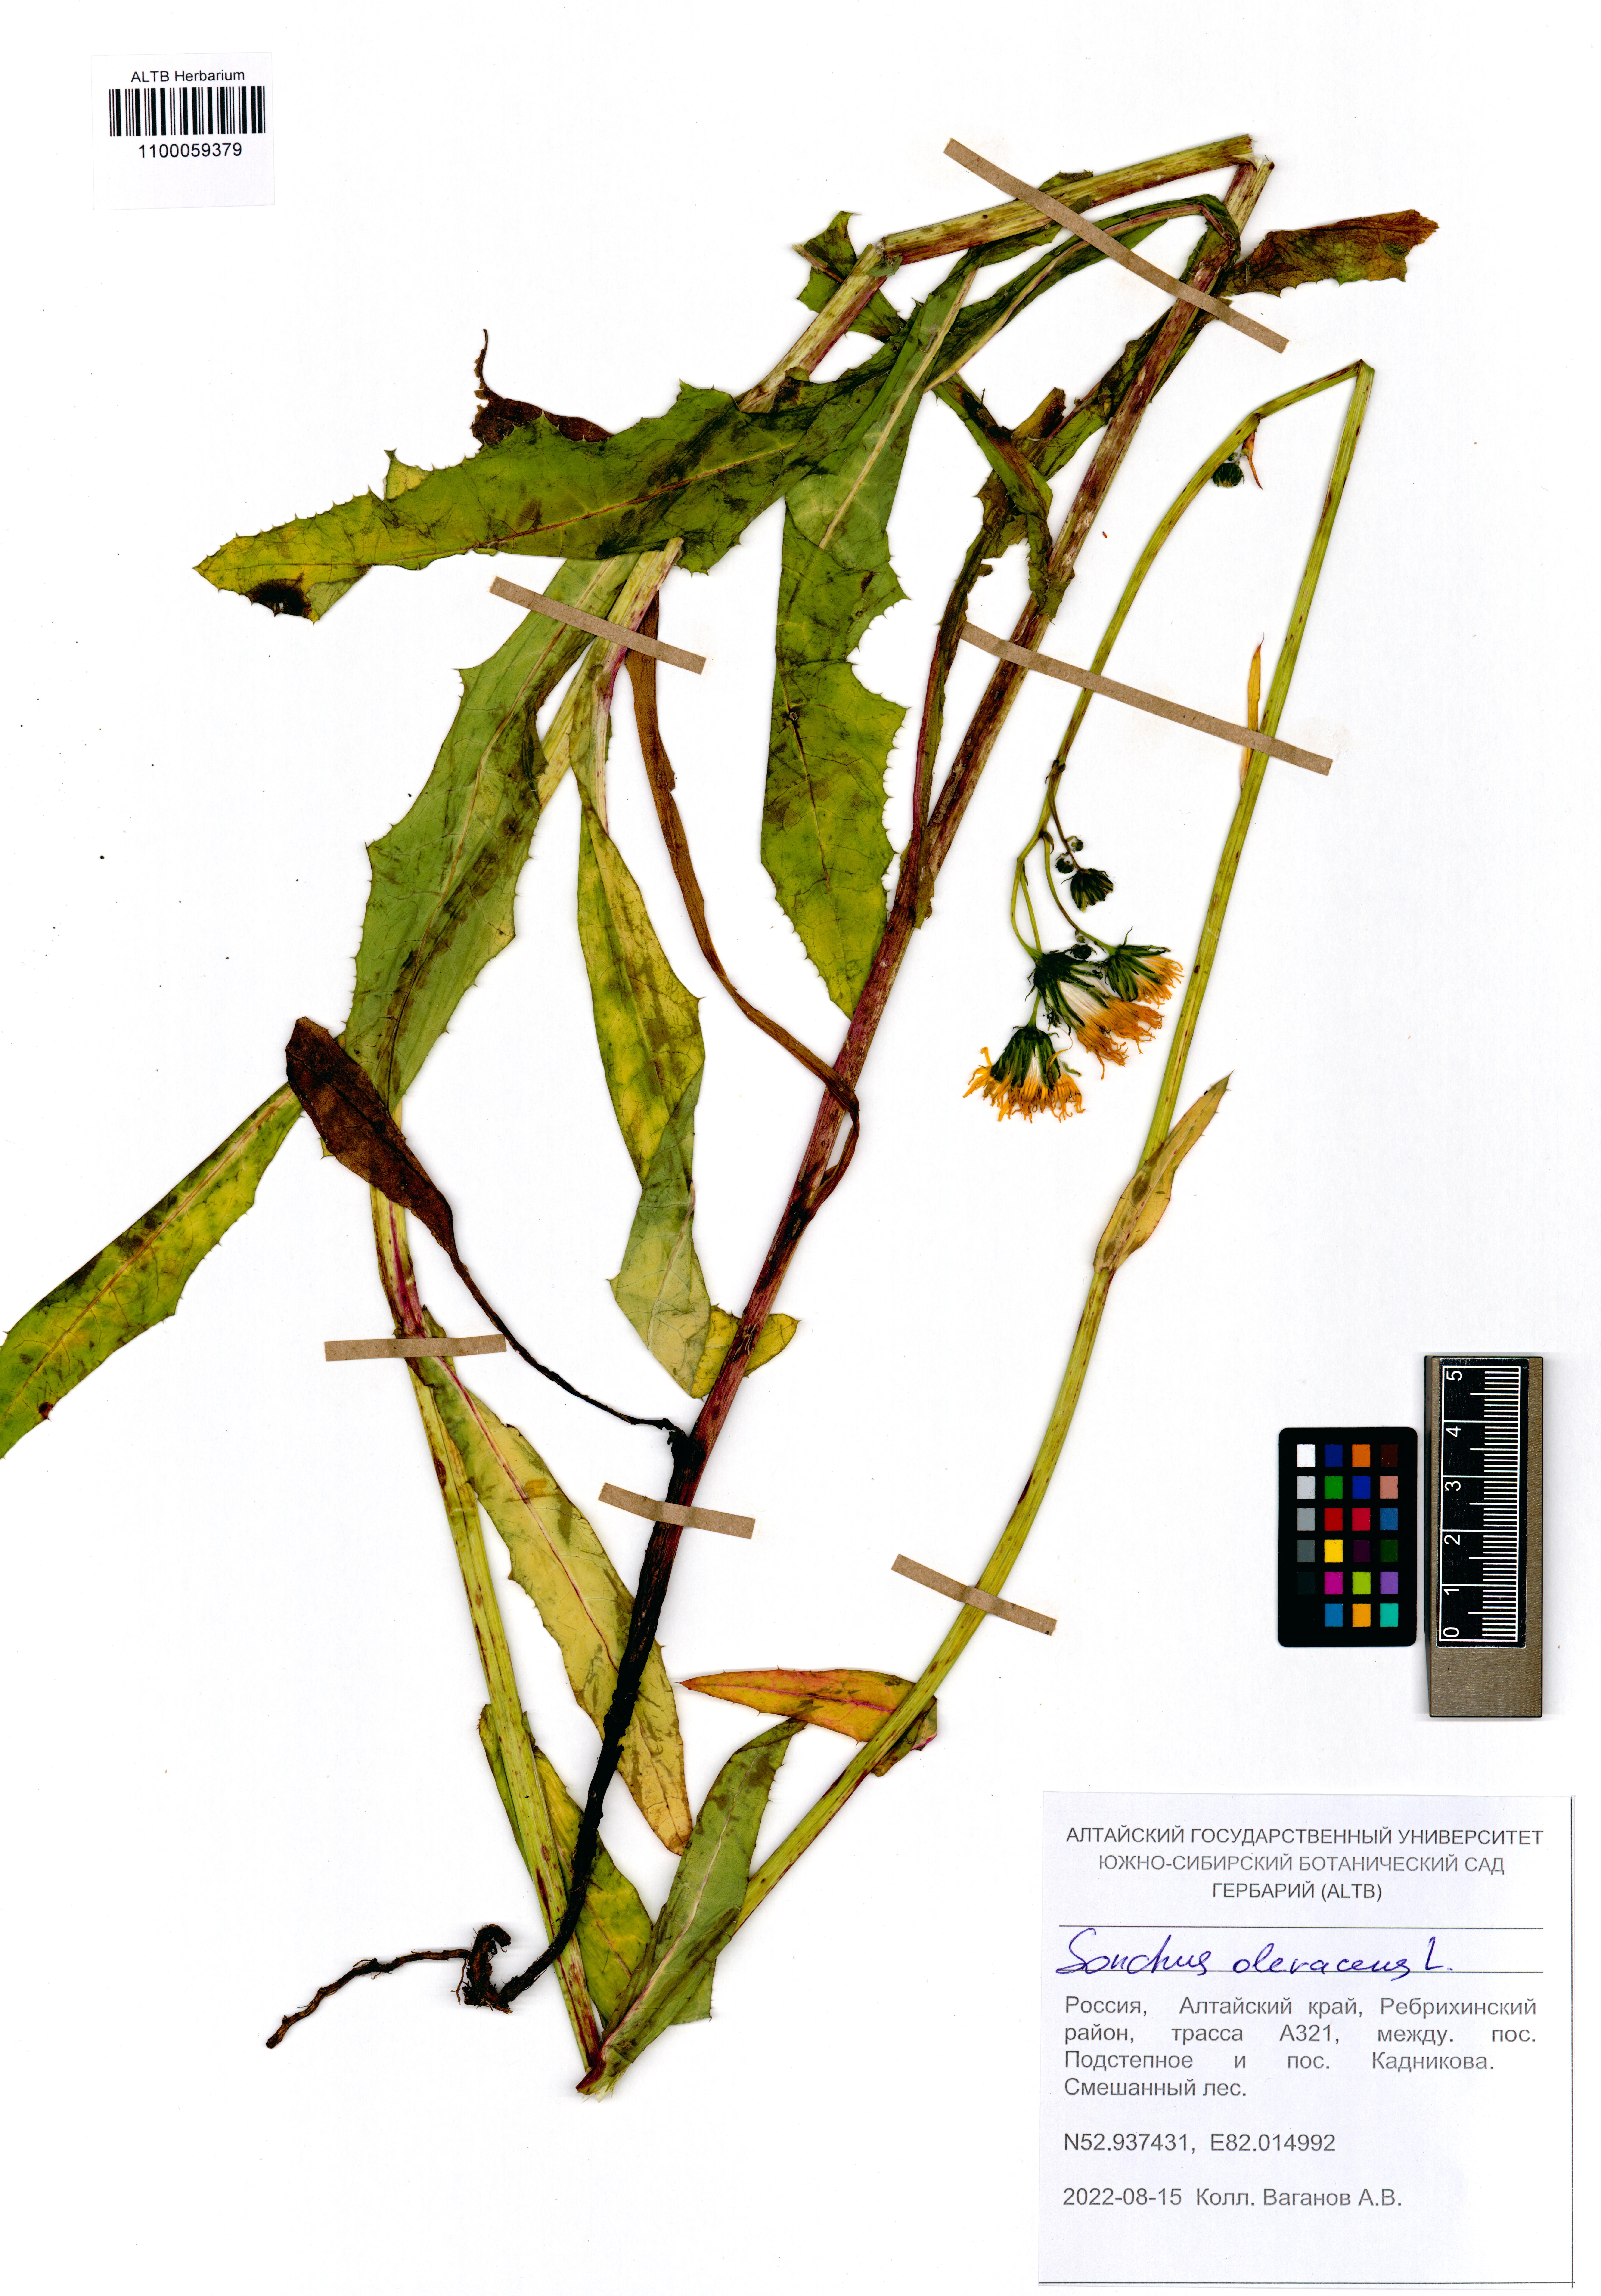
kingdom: Plantae
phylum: Tracheophyta
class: Magnoliopsida
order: Asterales
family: Asteraceae
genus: Sonchus
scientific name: Sonchus oleraceus
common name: Common sowthistle
